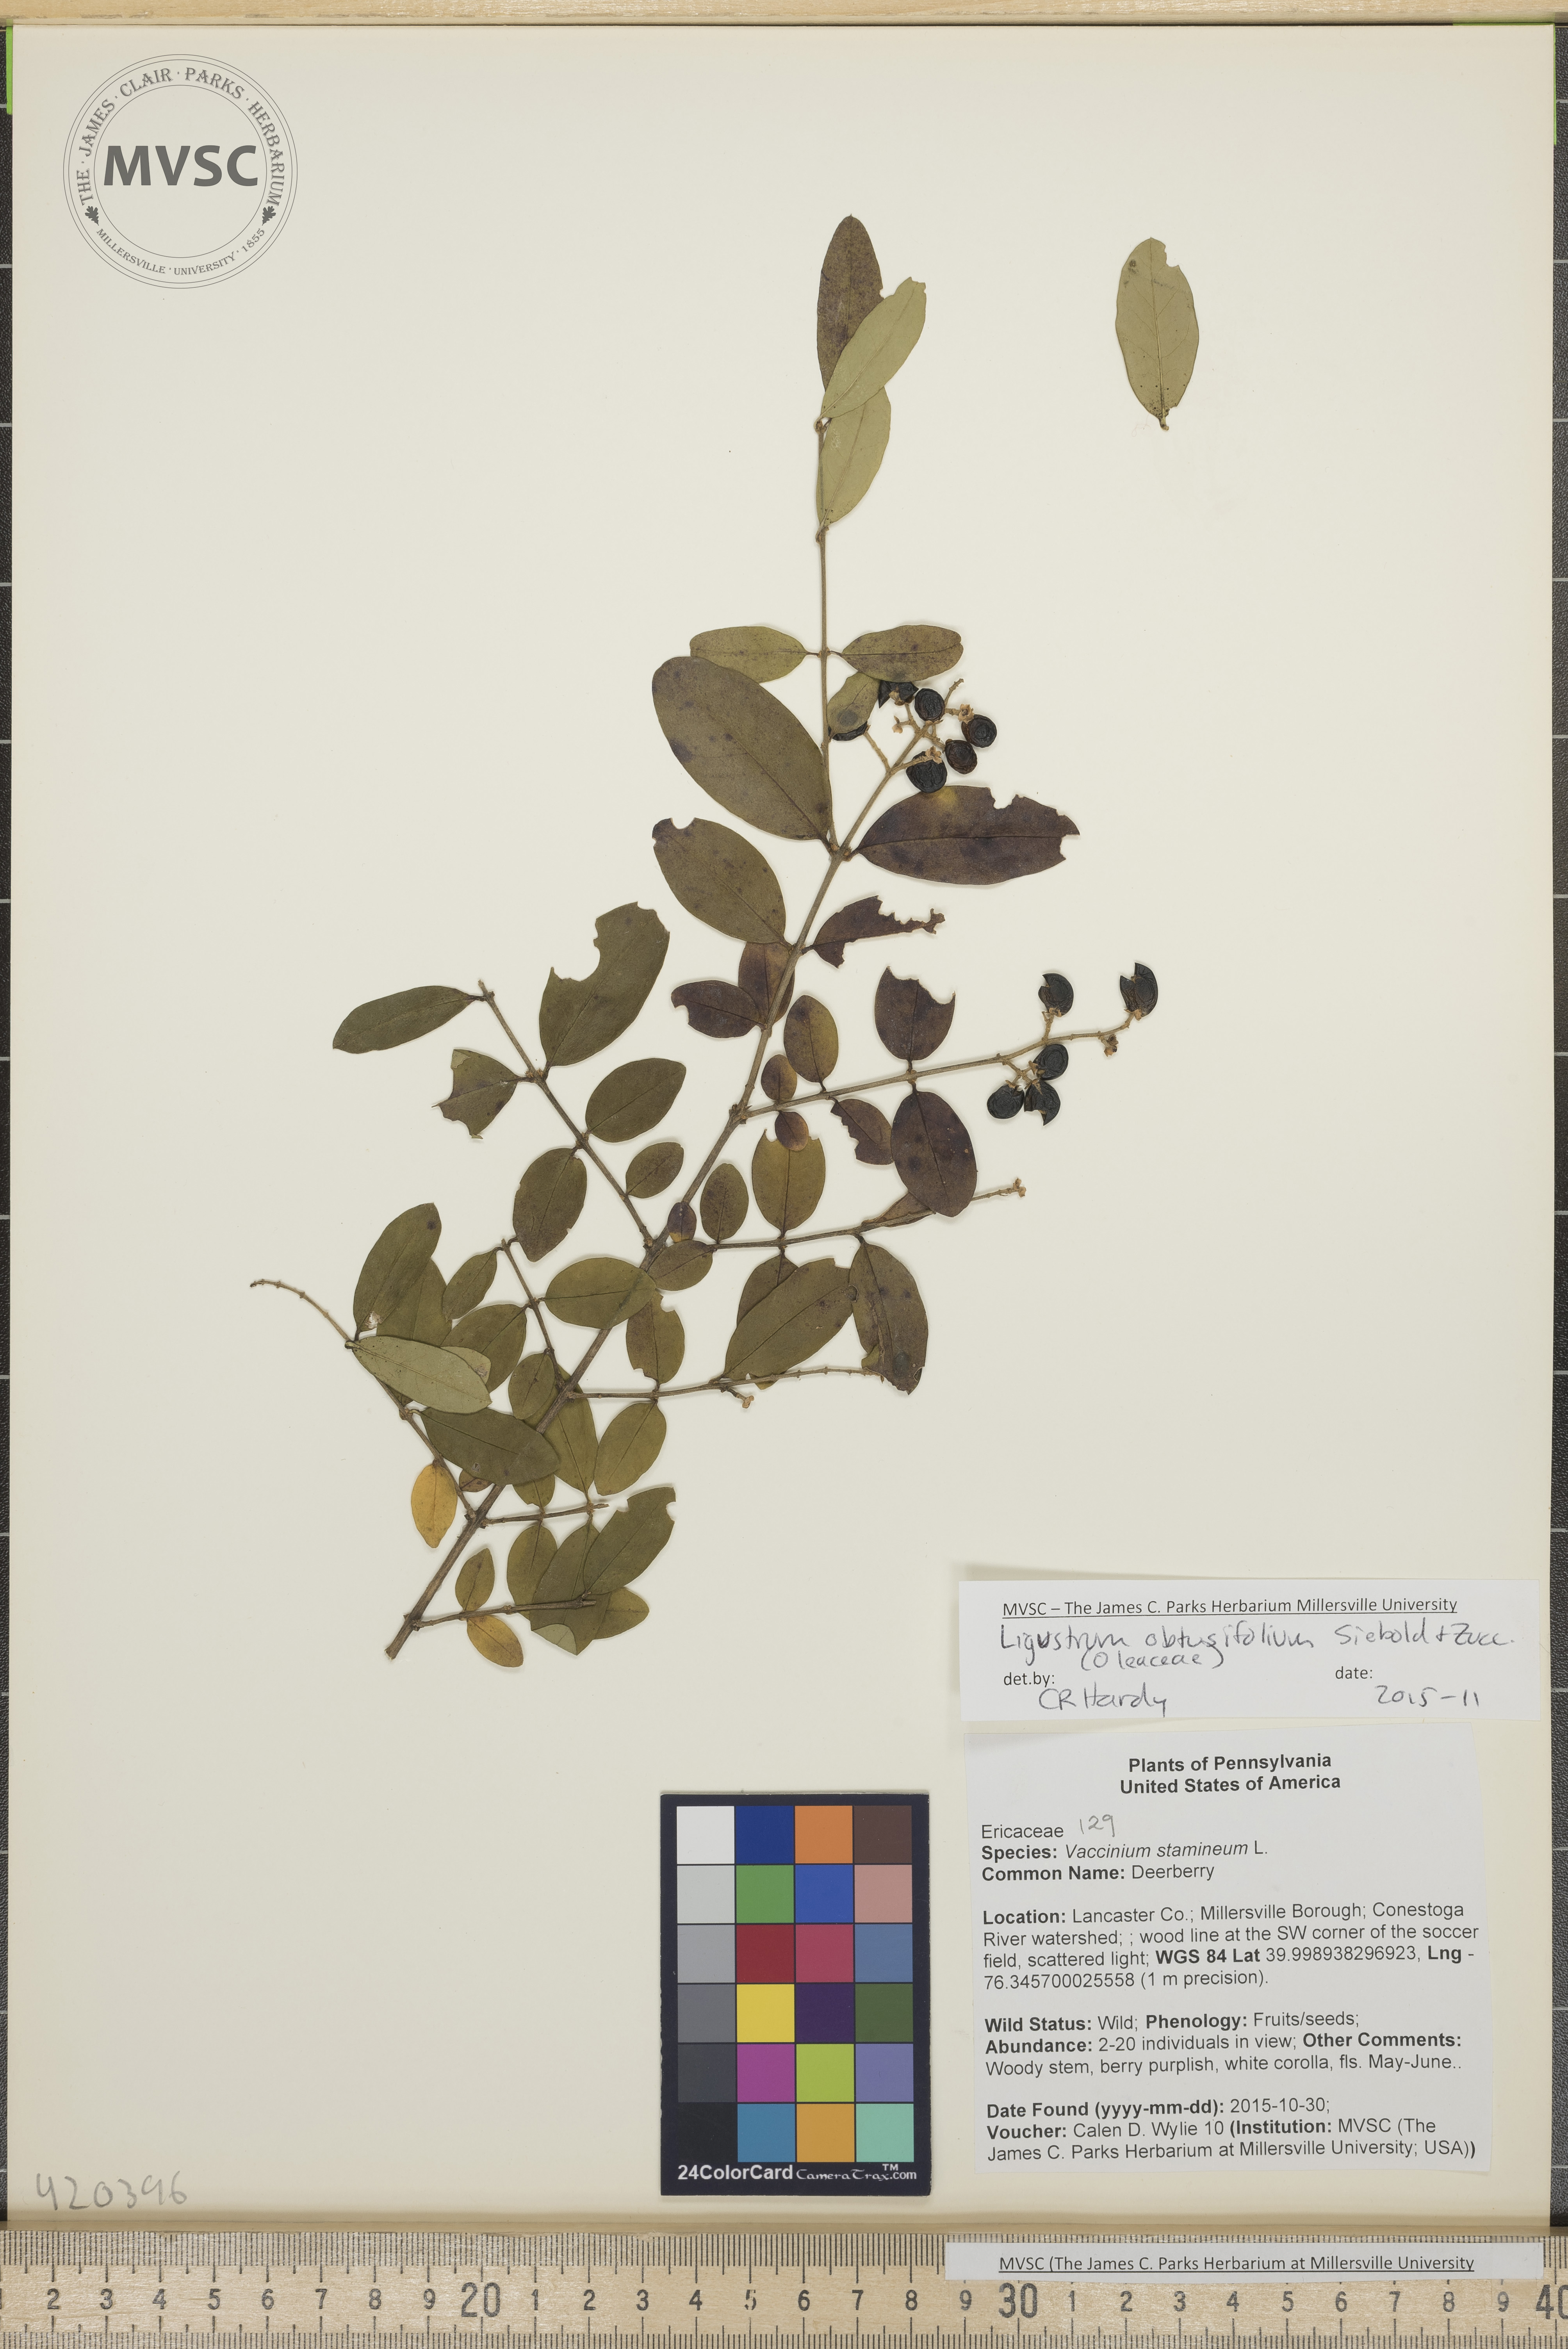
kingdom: Plantae
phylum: Tracheophyta
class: Magnoliopsida
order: Lamiales
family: Oleaceae
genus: Ligustrum
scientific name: Ligustrum obtusifolium
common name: Privet
